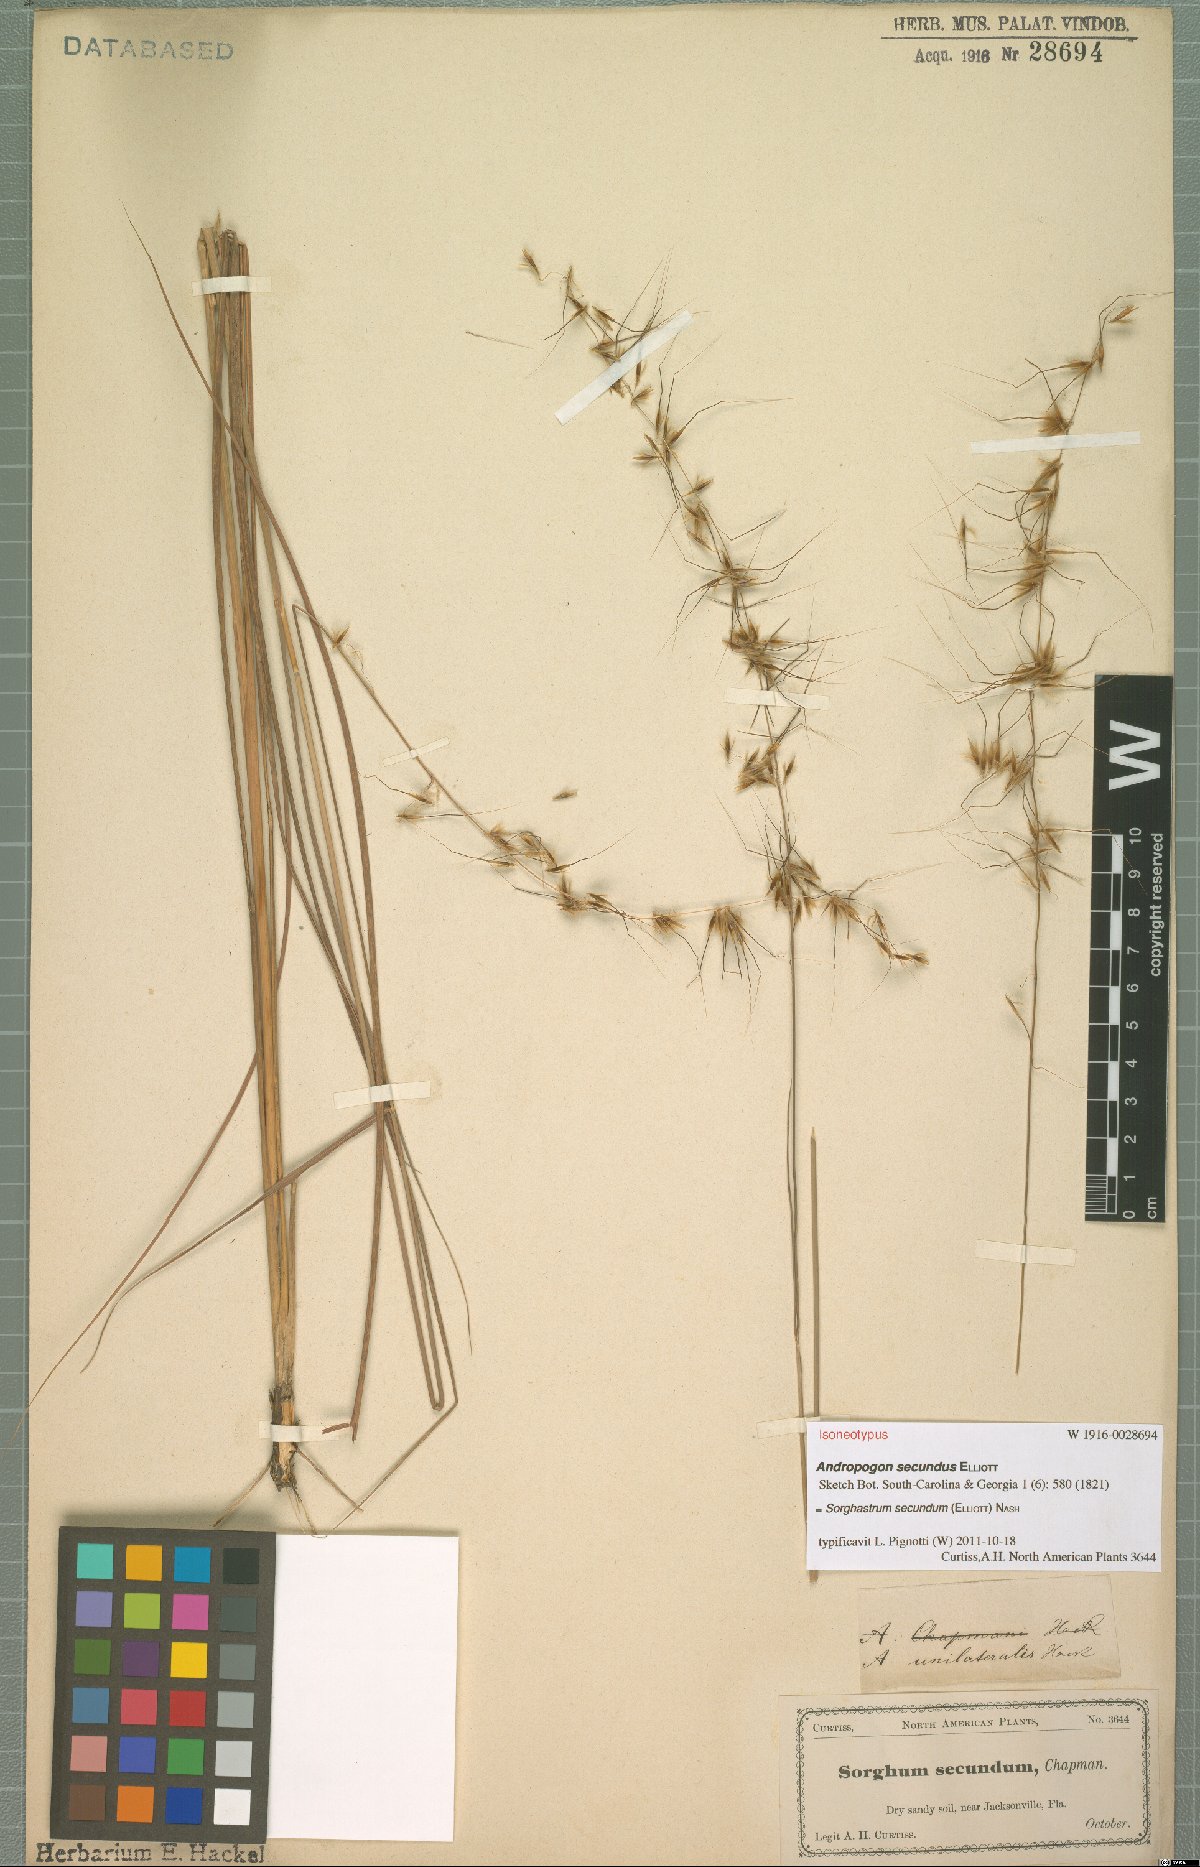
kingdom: Plantae
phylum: Tracheophyta
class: Liliopsida
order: Poales
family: Poaceae
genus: Sorghastrum
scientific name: Sorghastrum secundum
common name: Lopsided indian grass
